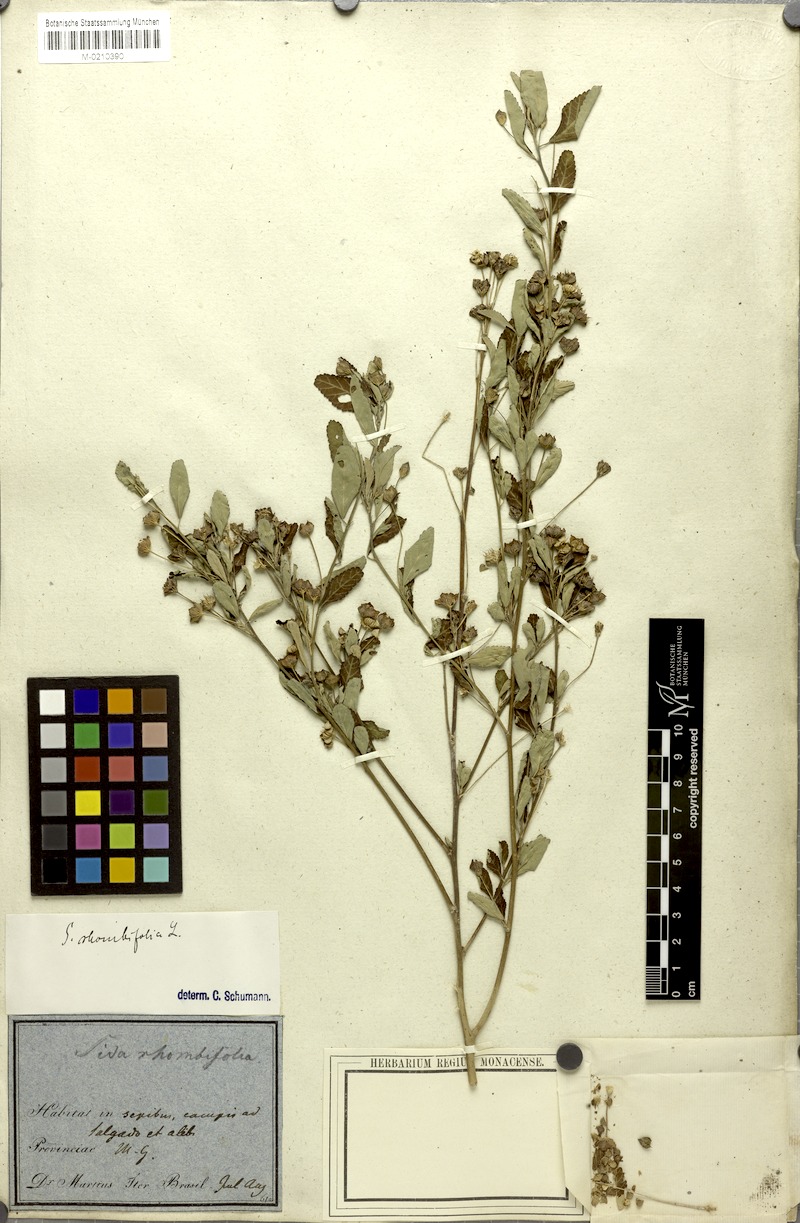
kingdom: Plantae
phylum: Tracheophyta
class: Magnoliopsida
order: Malvales
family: Malvaceae
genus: Sida
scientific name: Sida rhombifolia
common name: Queensland-hemp
